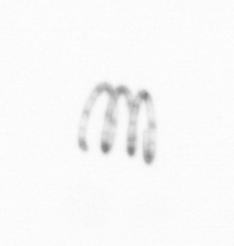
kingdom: Chromista
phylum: Ochrophyta
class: Bacillariophyceae
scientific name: Bacillariophyceae
